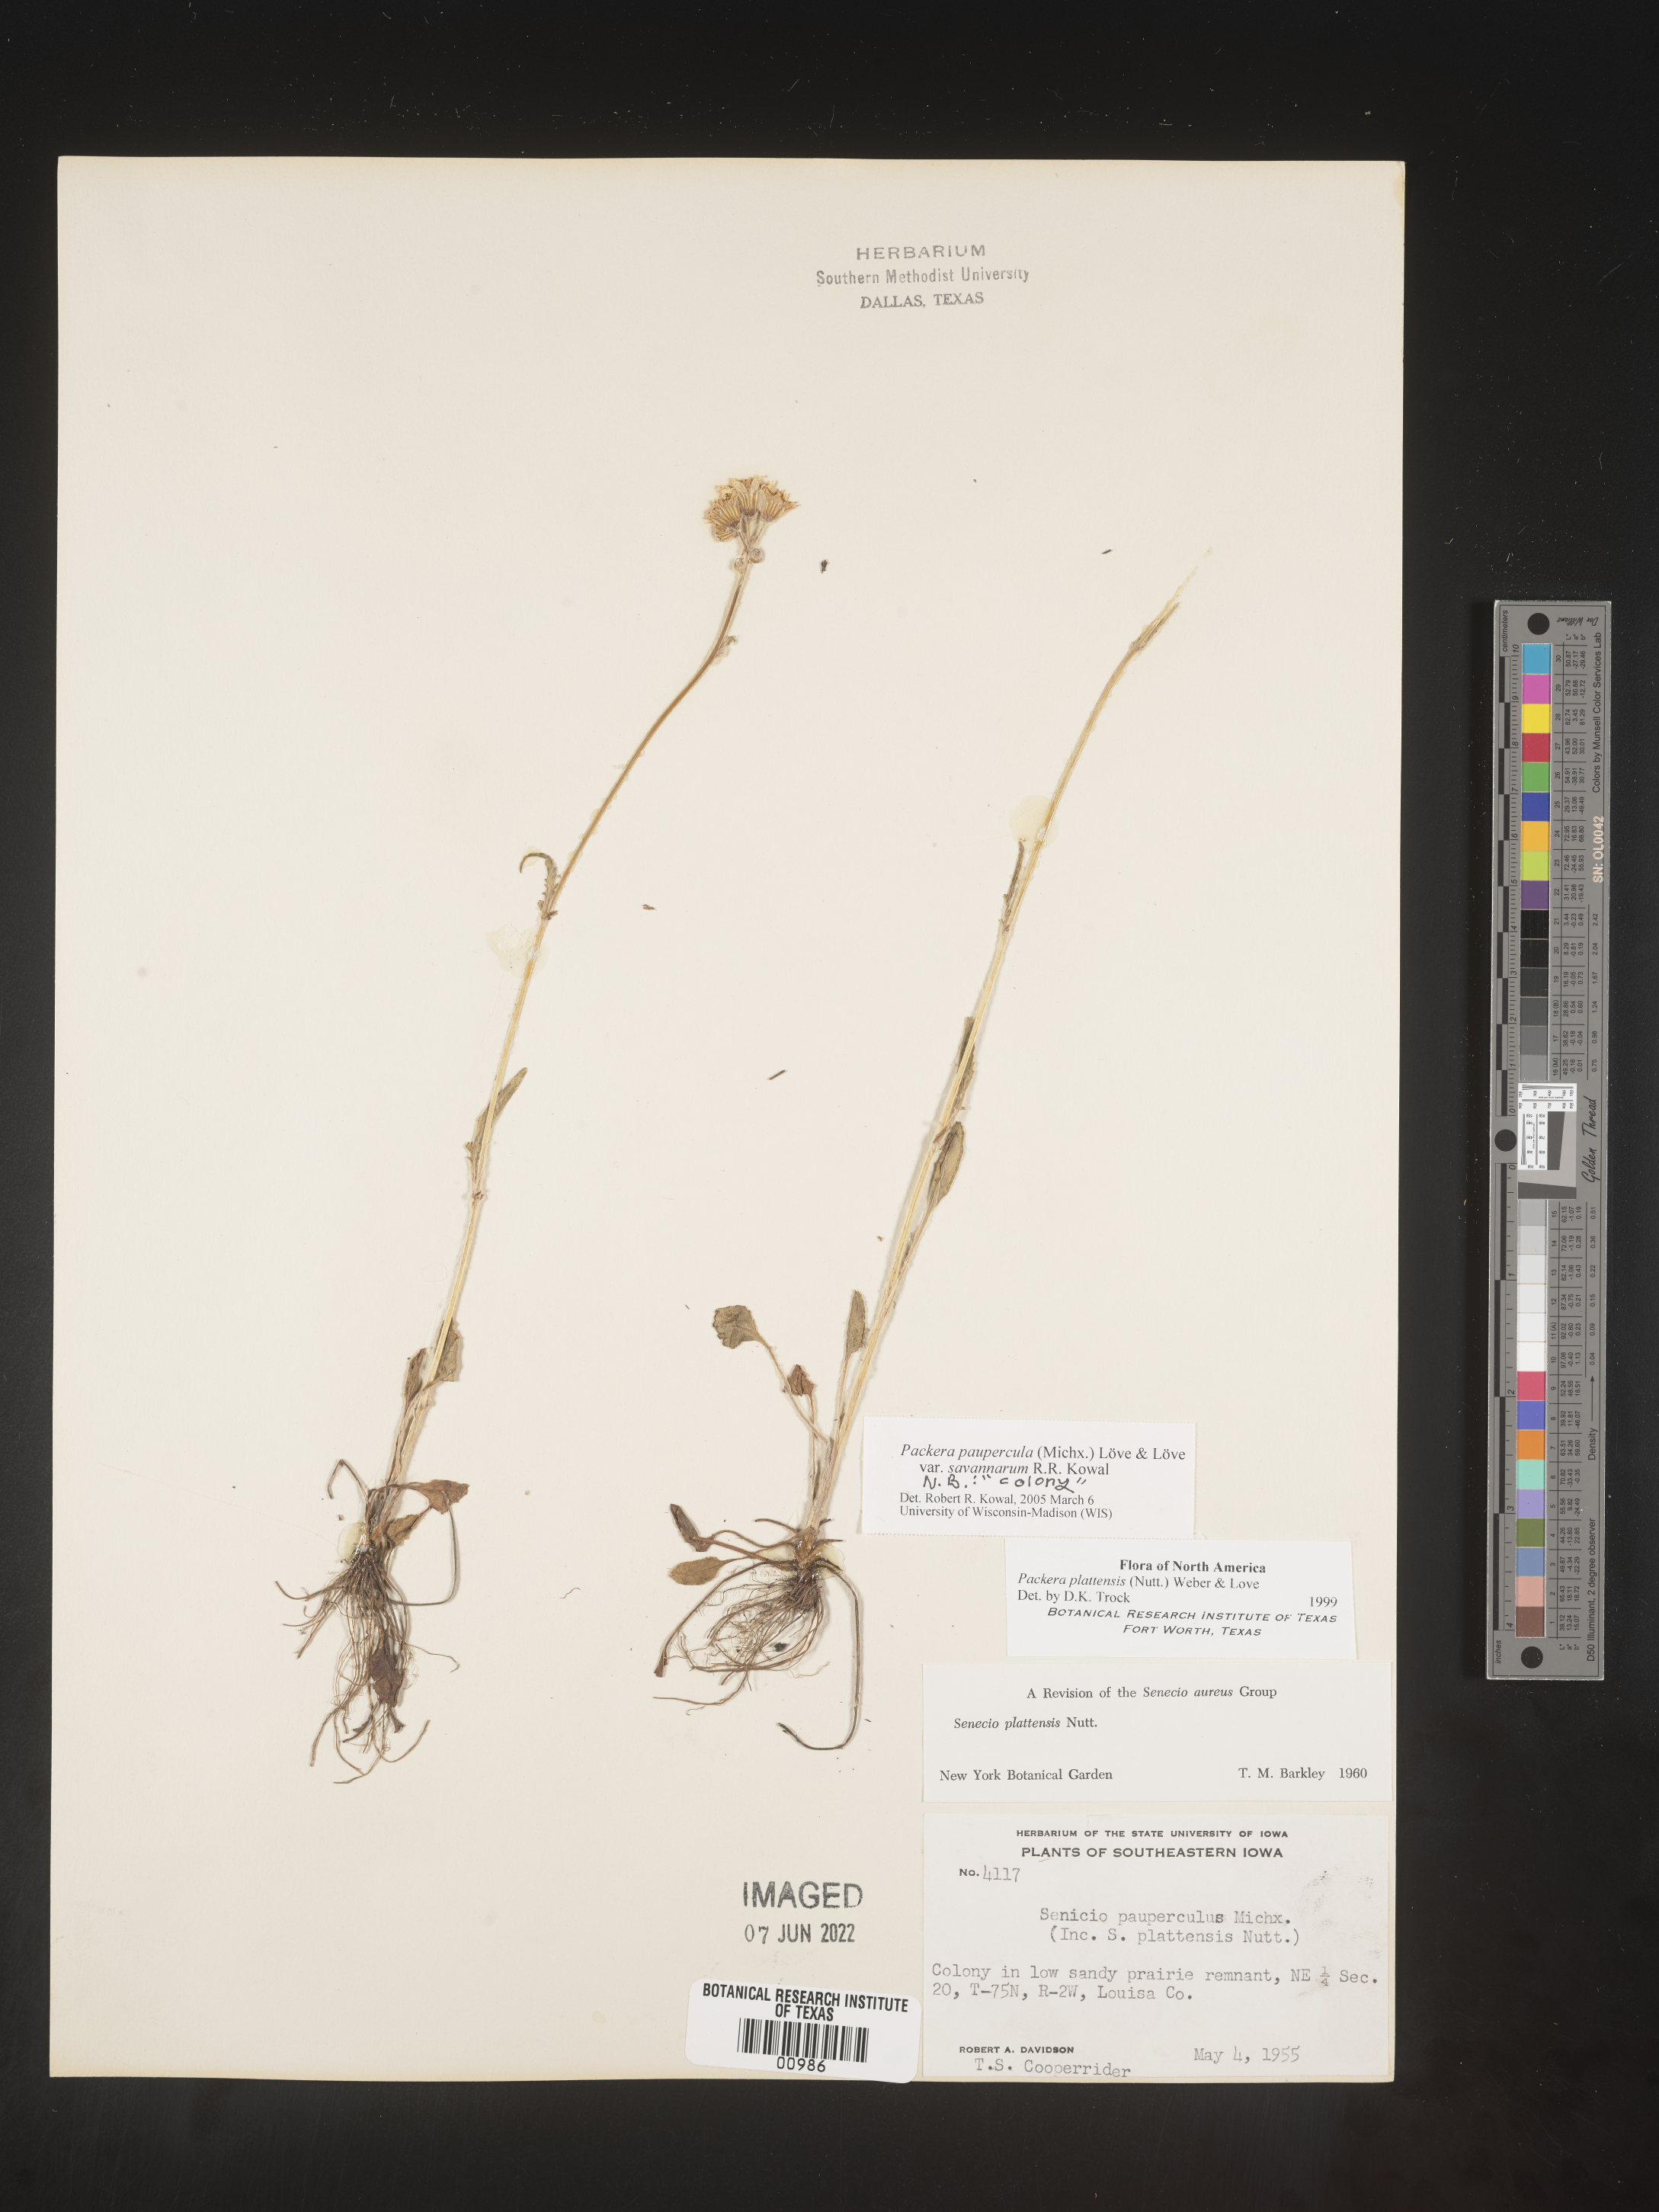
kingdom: Plantae
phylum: Tracheophyta
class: Magnoliopsida
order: Asterales
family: Asteraceae
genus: Packera
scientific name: Packera paupercula
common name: Balsam groundsel
